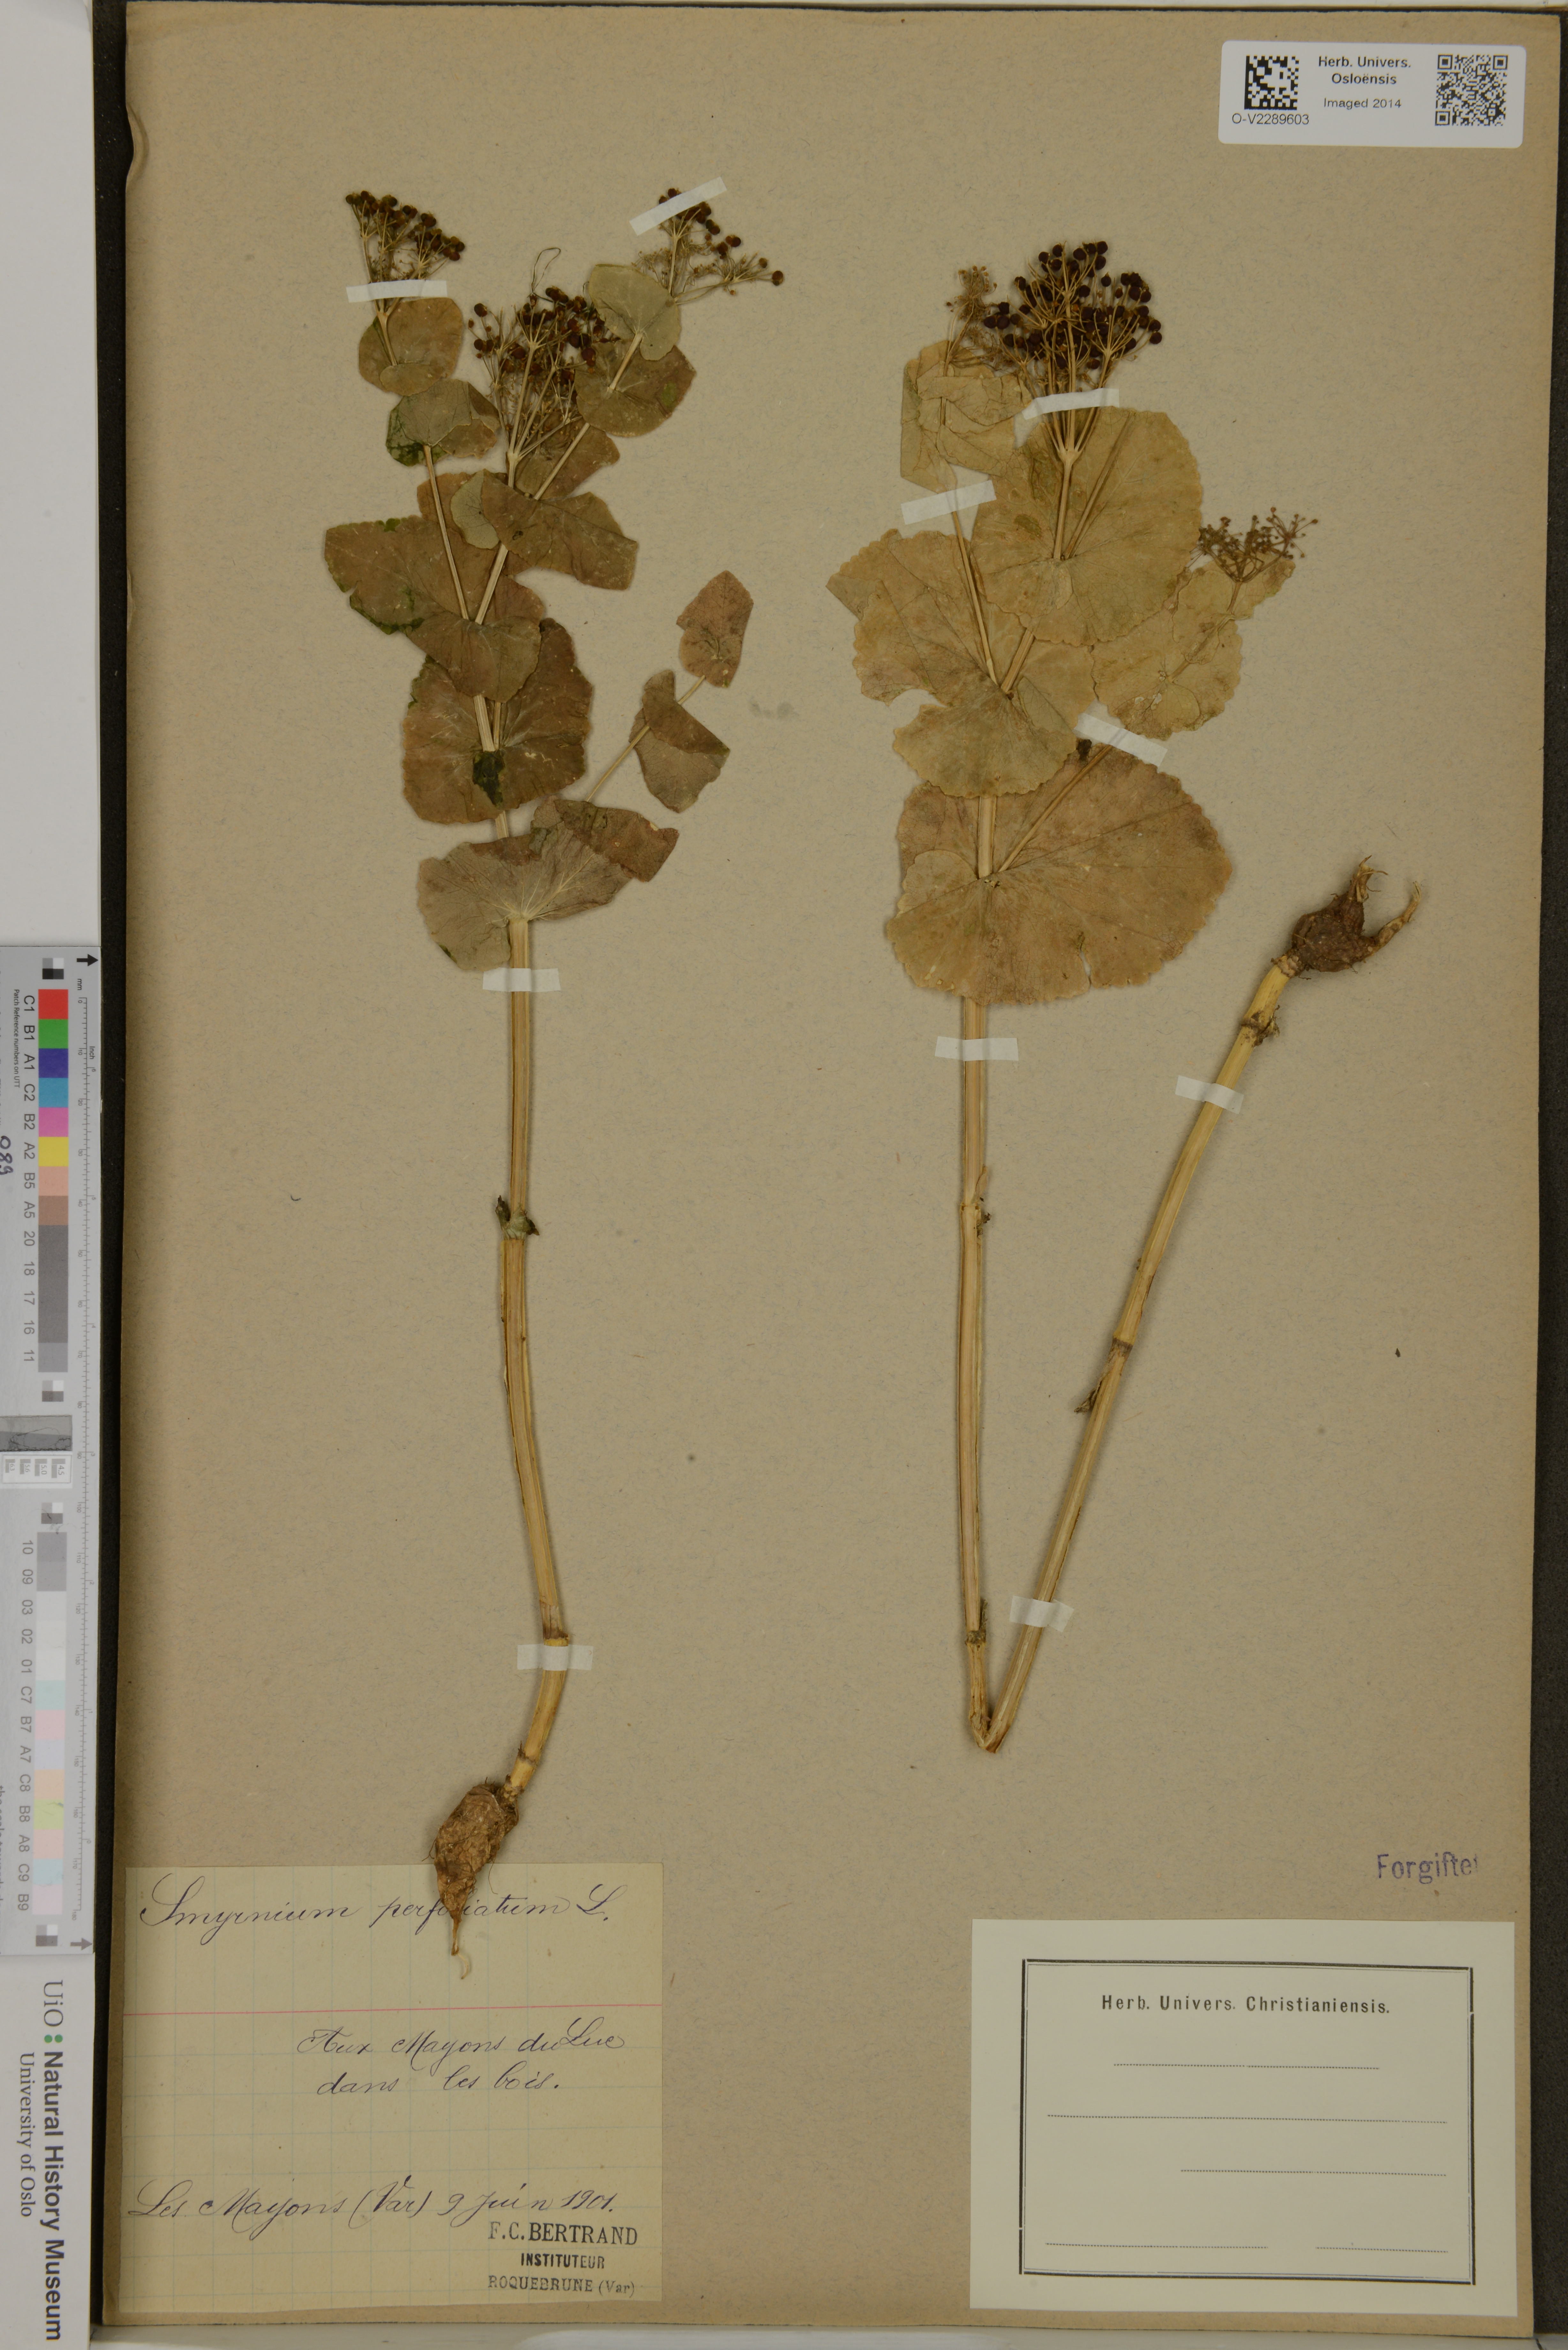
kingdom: Plantae
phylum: Tracheophyta
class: Magnoliopsida
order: Apiales
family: Apiaceae
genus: Smyrnium
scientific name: Smyrnium perfoliatum
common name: Perfoliate alexanders
